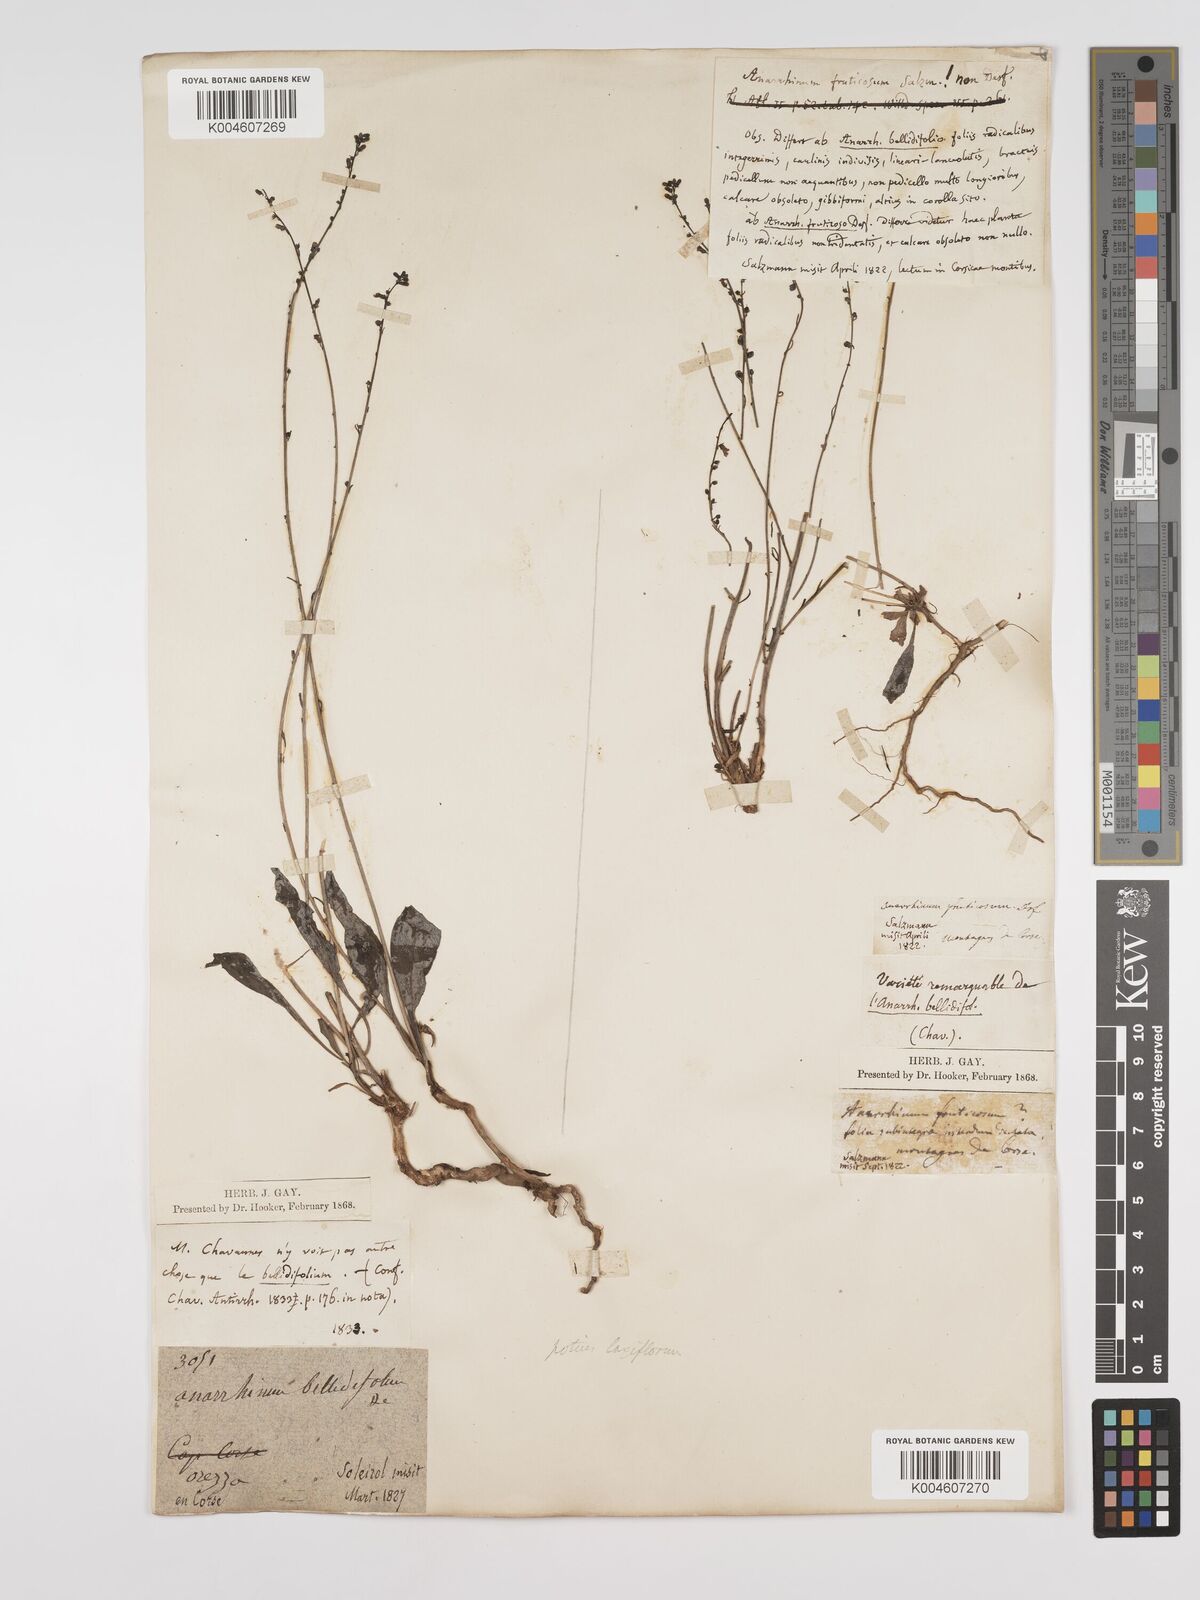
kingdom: Plantae
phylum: Tracheophyta
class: Magnoliopsida
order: Lamiales
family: Plantaginaceae
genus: Anarrhinum
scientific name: Anarrhinum corsicum
